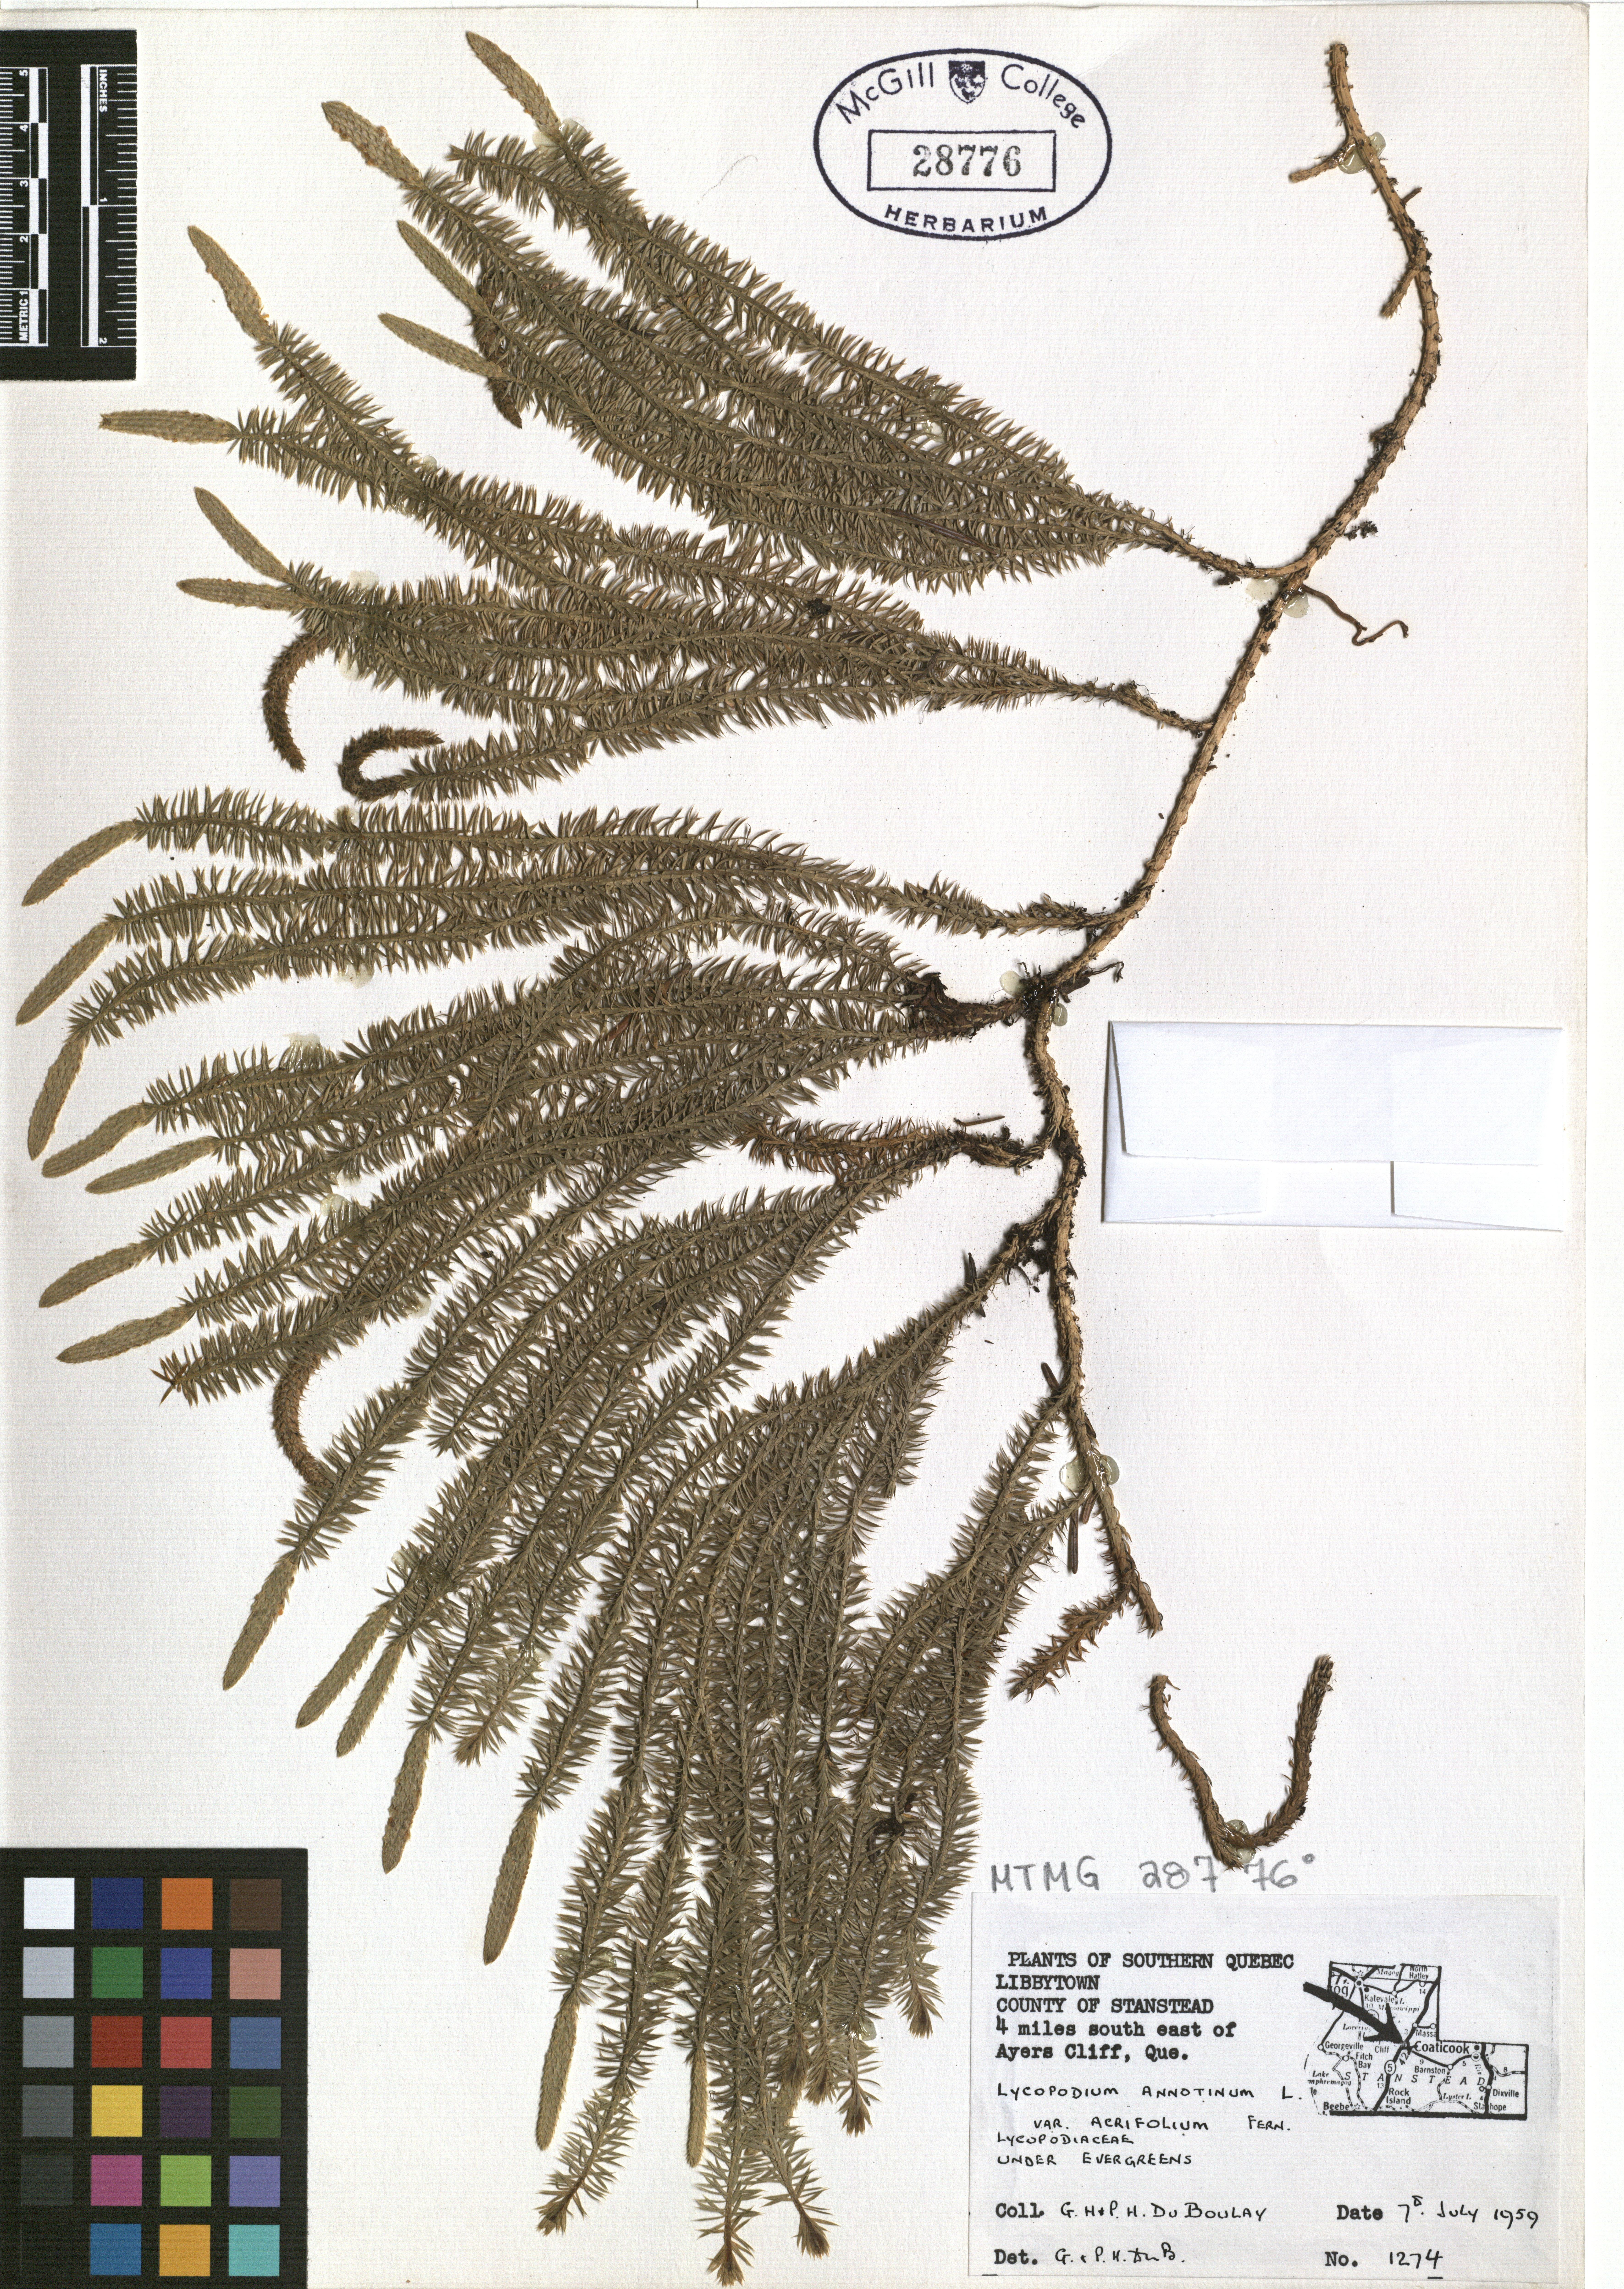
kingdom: Plantae
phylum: Tracheophyta
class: Lycopodiopsida
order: Lycopodiales
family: Lycopodiaceae
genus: Spinulum
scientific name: Spinulum annotinum
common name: Interrupted club-moss
